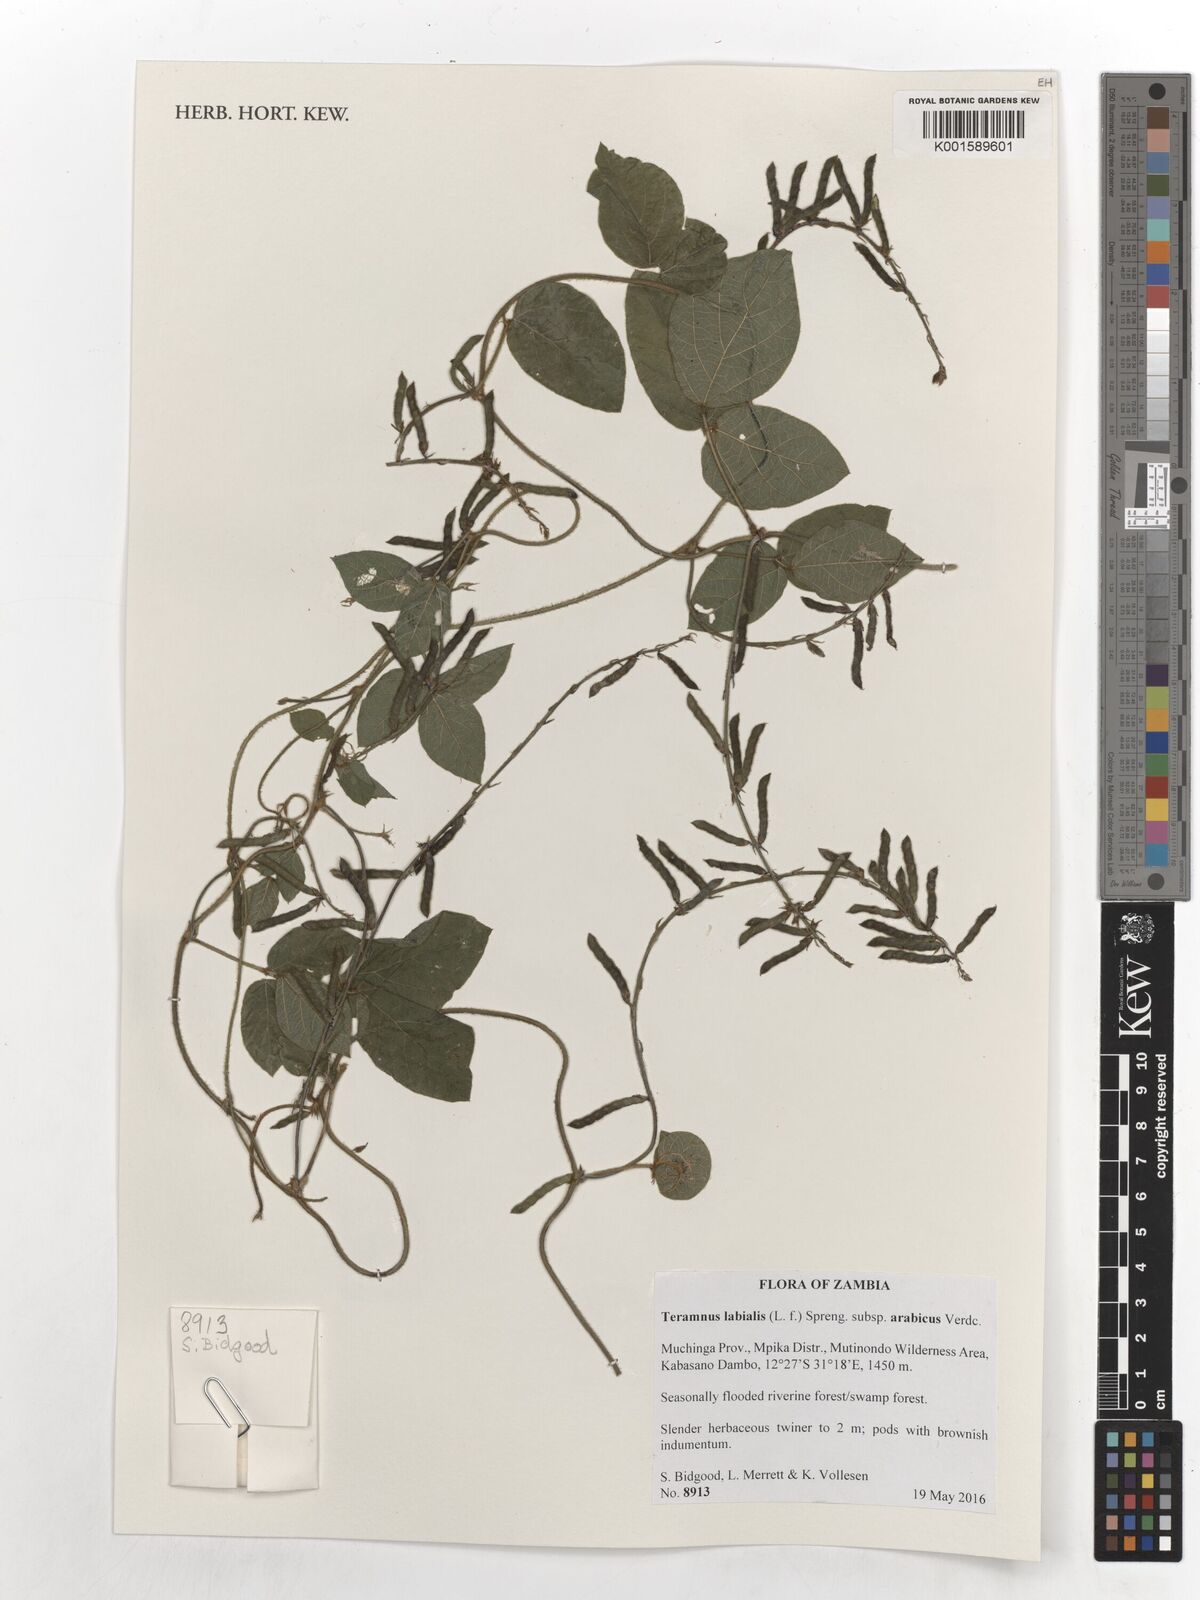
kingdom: Plantae
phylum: Tracheophyta
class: Magnoliopsida
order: Fabales
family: Fabaceae
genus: Teramnus
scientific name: Teramnus labialis
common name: Blue wiss
